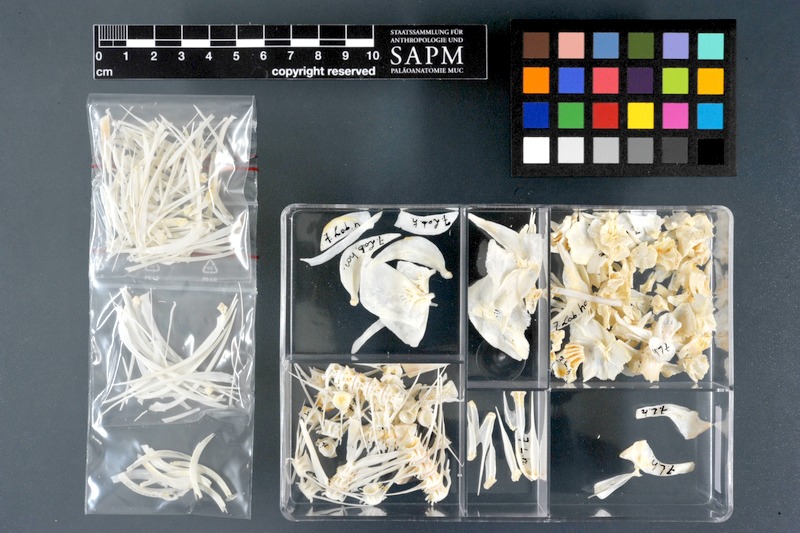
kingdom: Animalia
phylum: Chordata
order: Cypriniformes
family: Cyprinidae
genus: Labeo
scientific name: Labeo horie
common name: Assuan labeo
